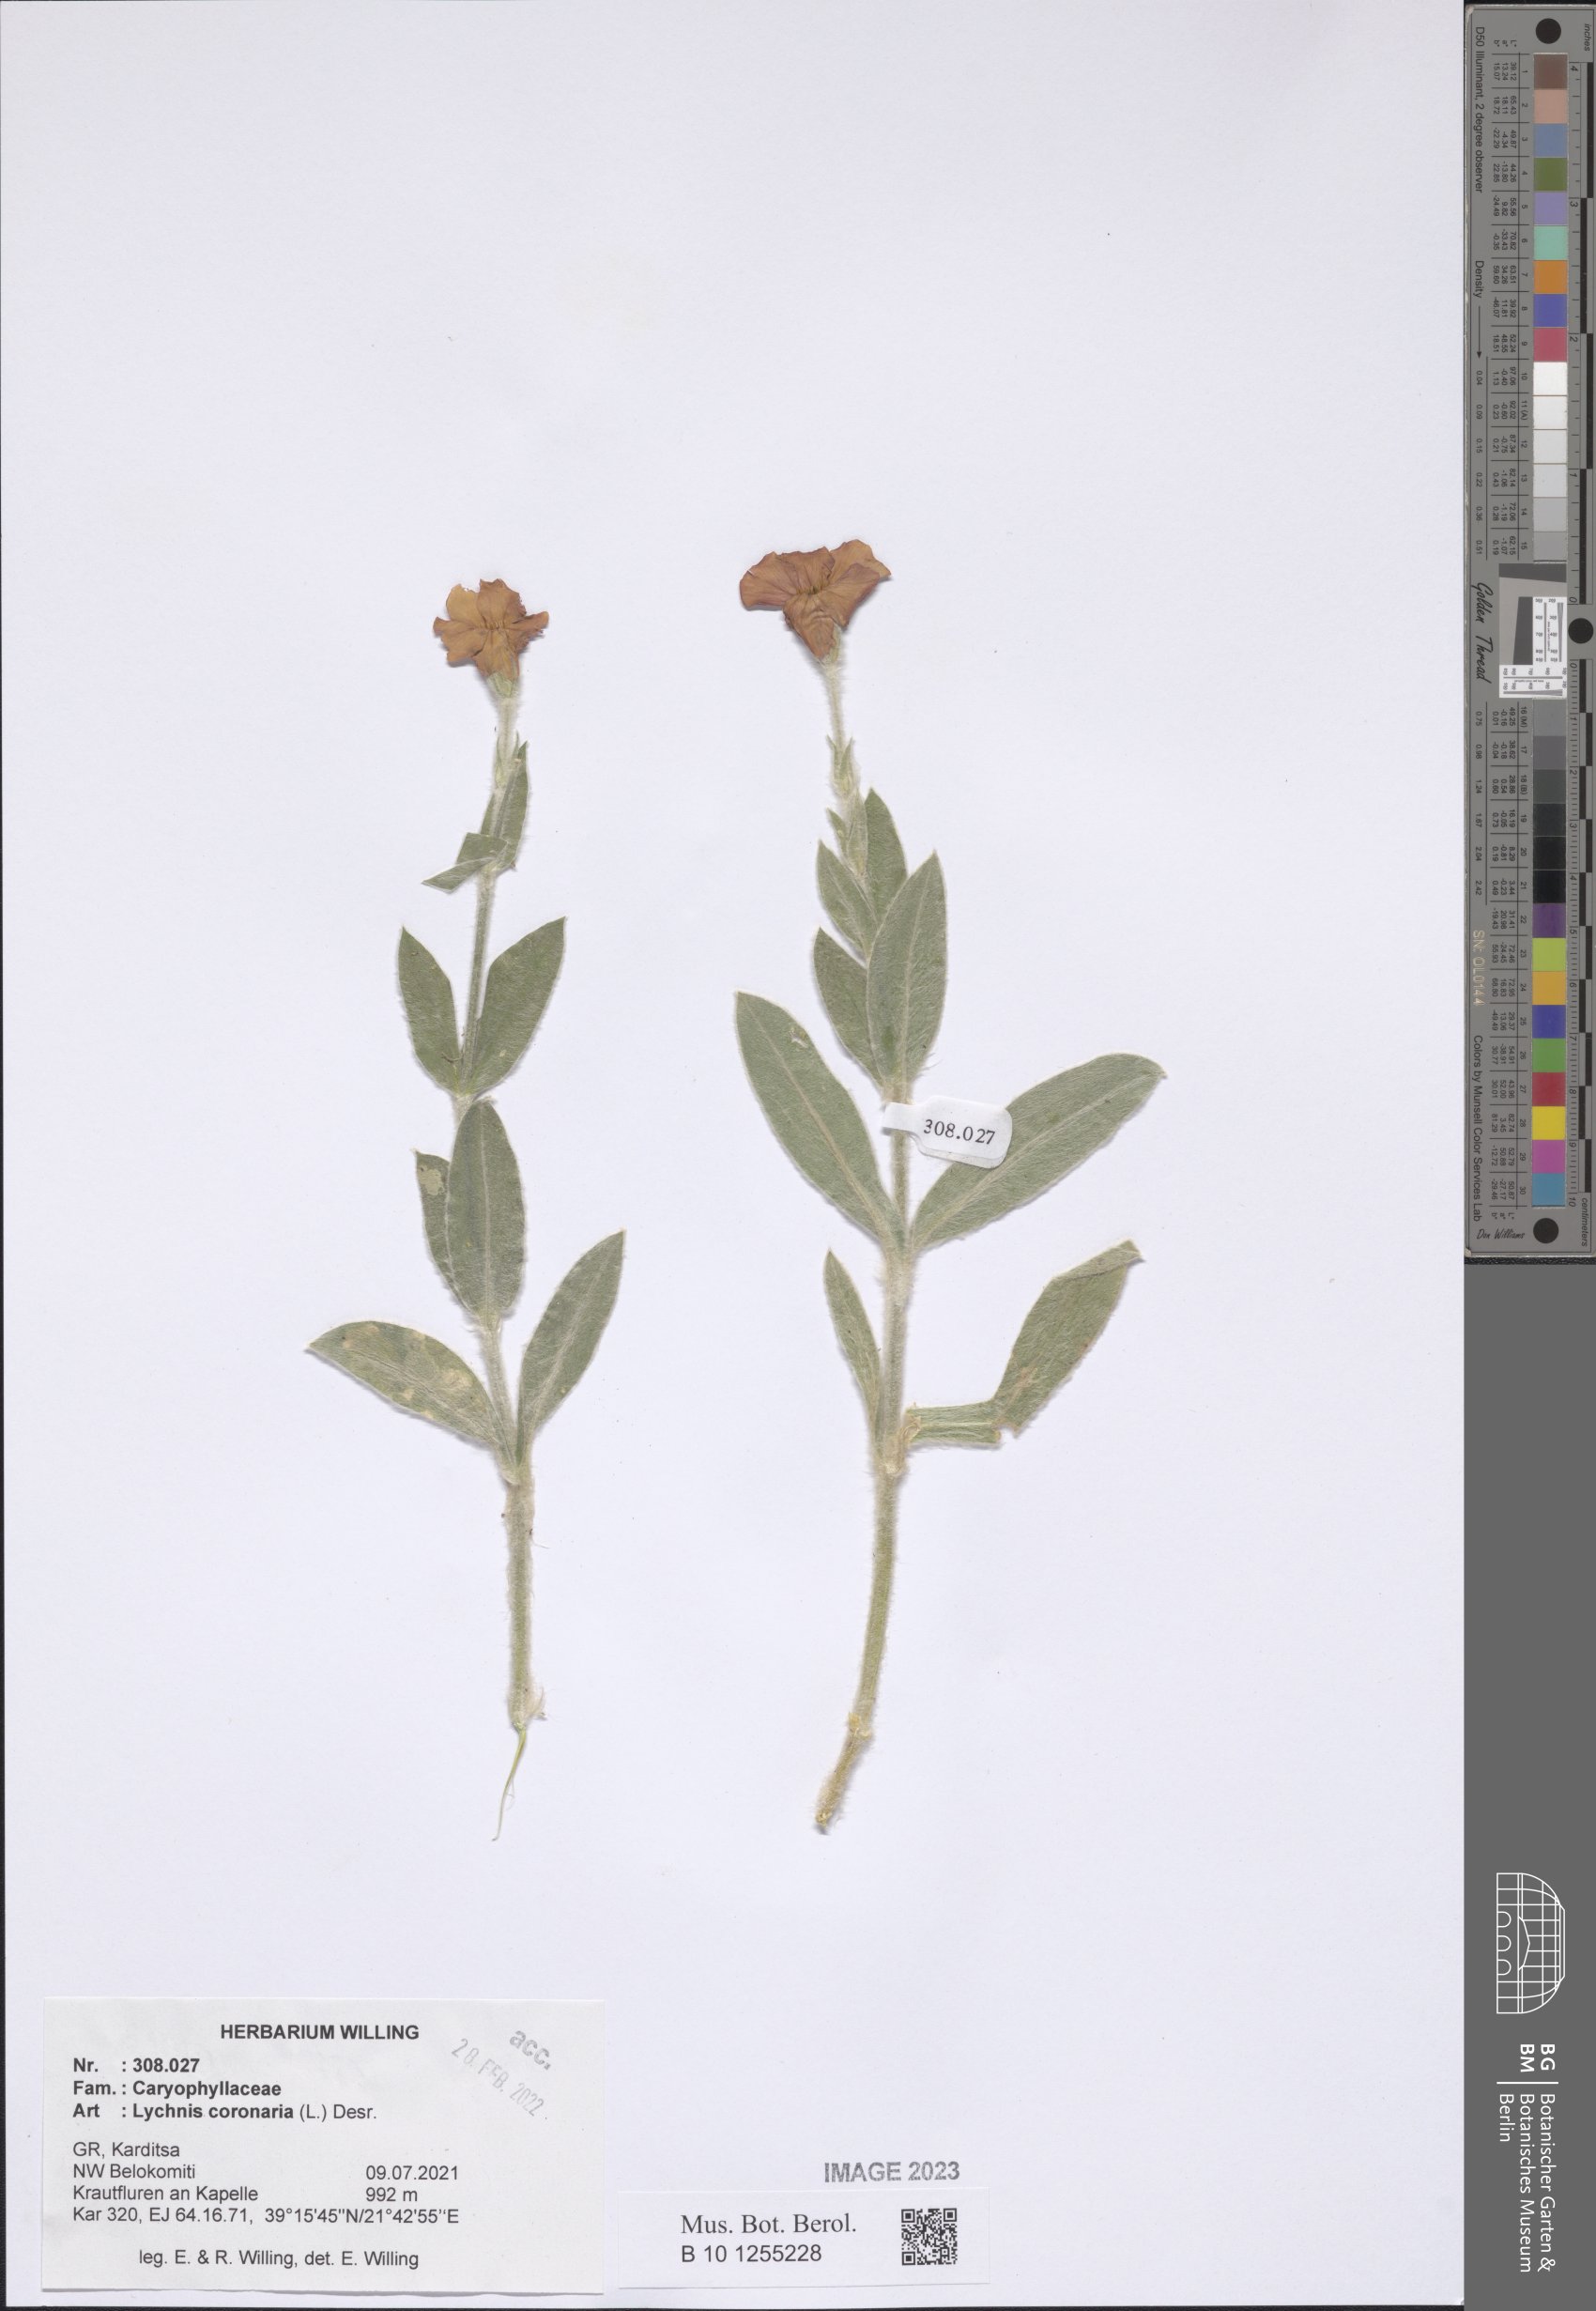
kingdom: Plantae
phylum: Tracheophyta
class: Magnoliopsida
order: Caryophyllales
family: Caryophyllaceae
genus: Silene
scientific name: Silene coronaria
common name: Rose campion
